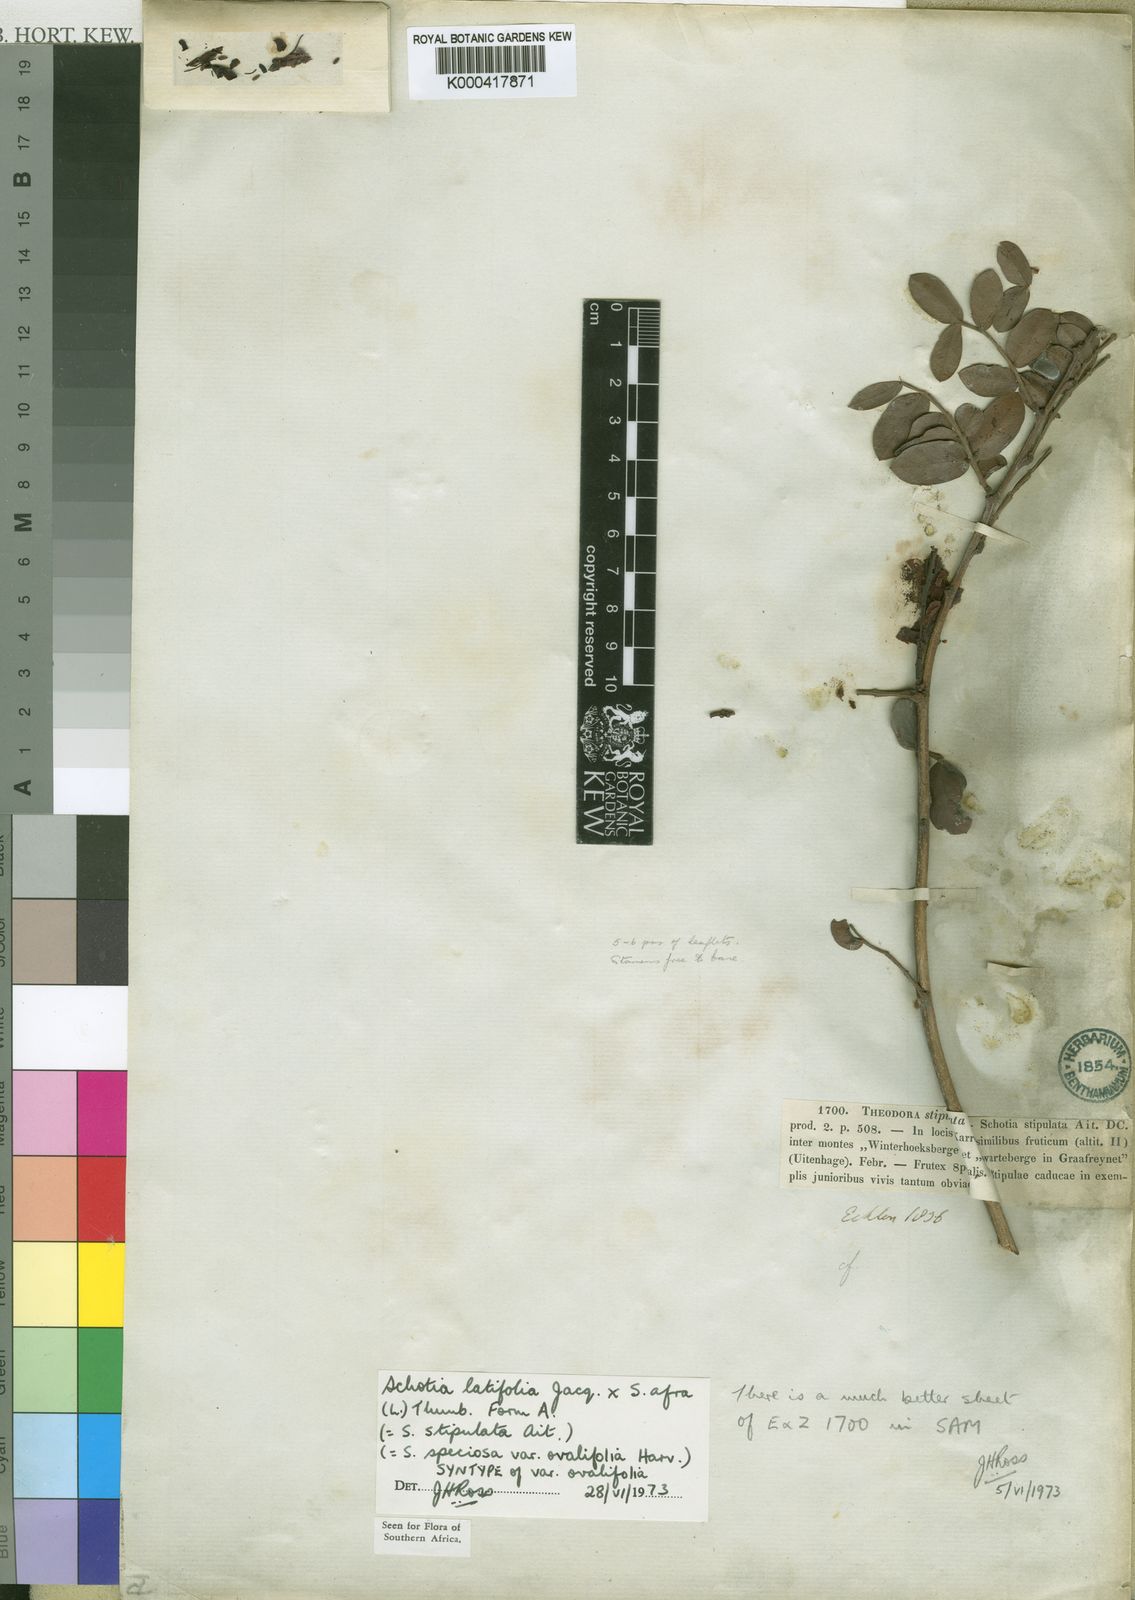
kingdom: Plantae
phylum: Tracheophyta
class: Magnoliopsida
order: Fabales
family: Fabaceae
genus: Schotia
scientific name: Schotia
